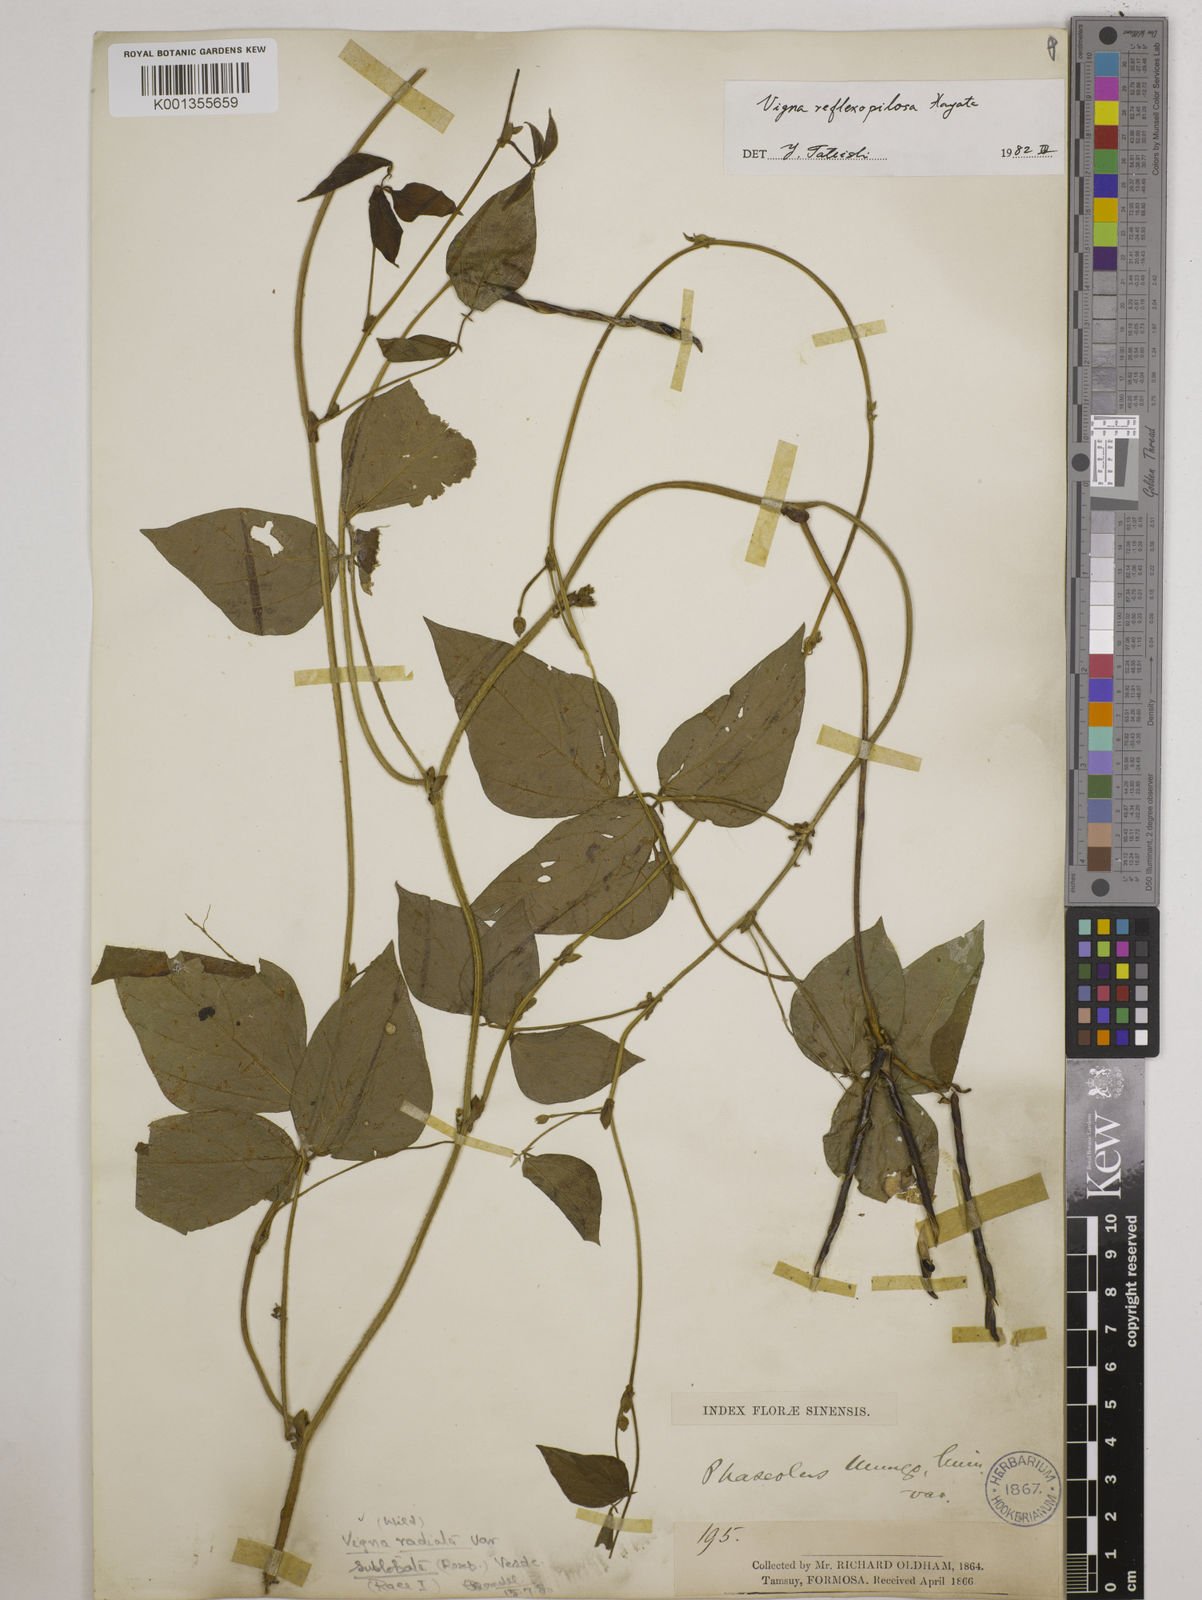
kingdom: Plantae
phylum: Tracheophyta
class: Magnoliopsida
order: Fabales
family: Fabaceae
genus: Vigna
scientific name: Vigna reflexopilosa
